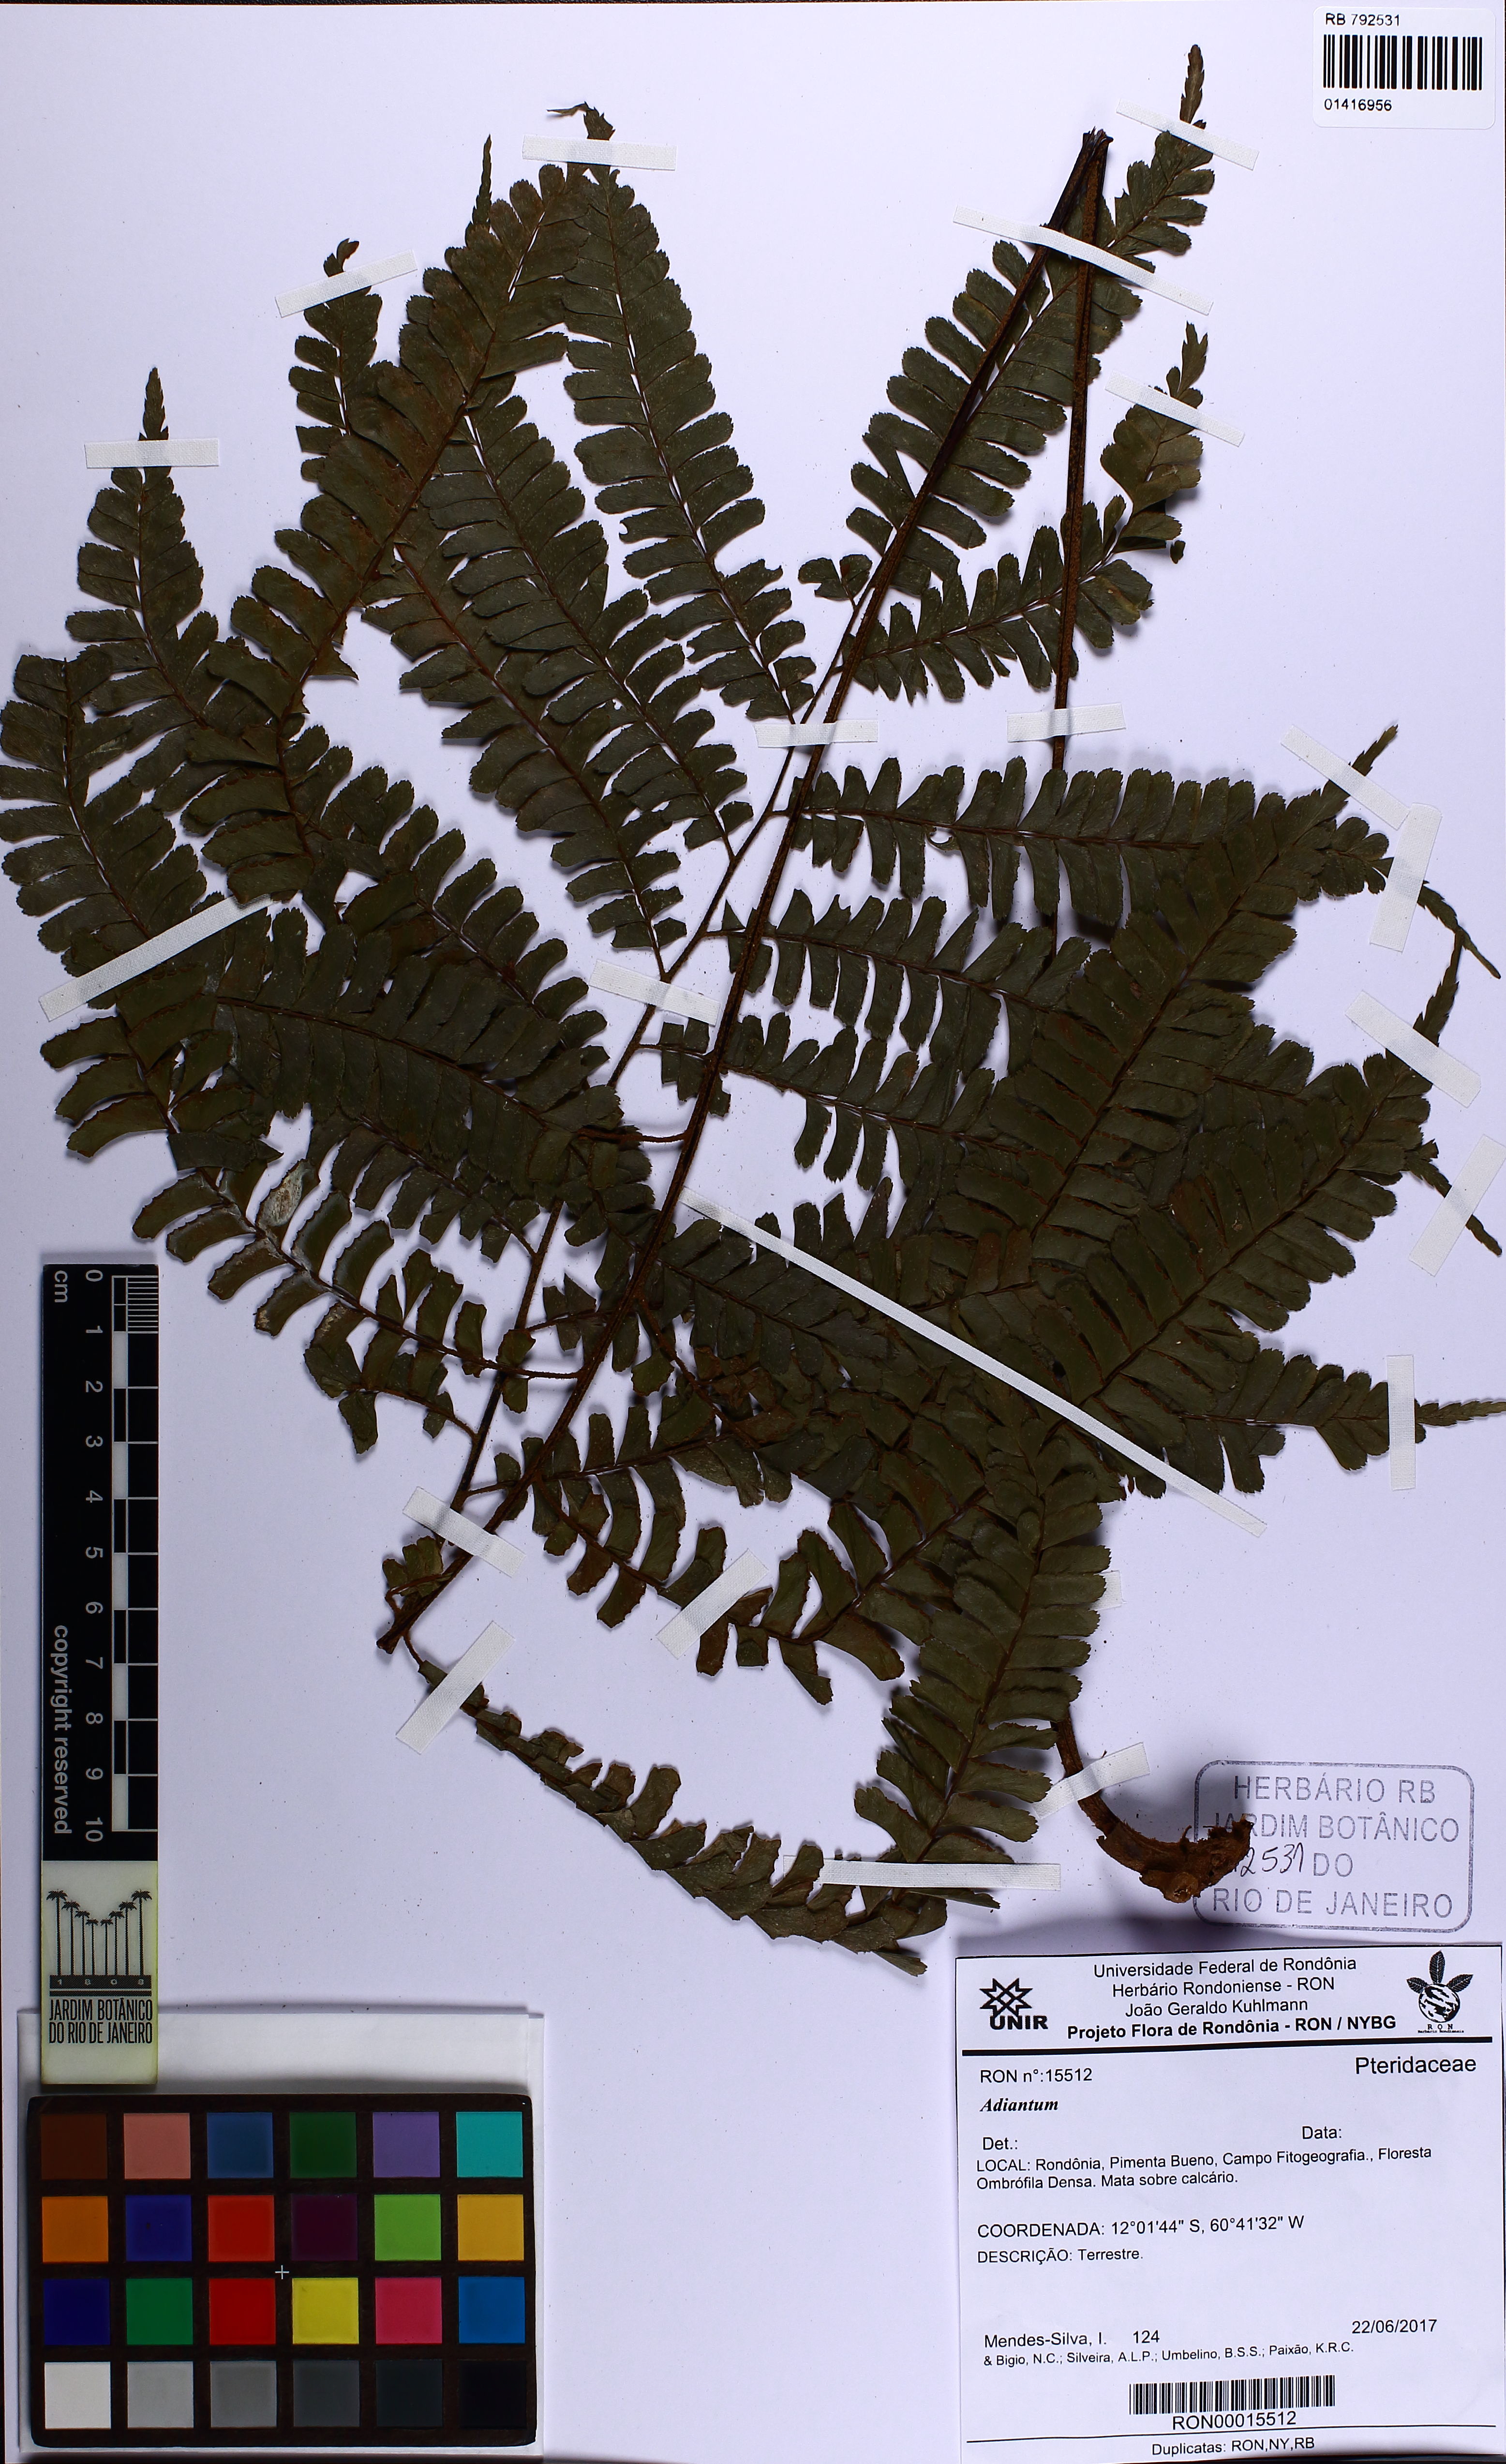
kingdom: Plantae
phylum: Tracheophyta
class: Polypodiopsida
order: Polypodiales
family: Pteridaceae
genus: Adiantum
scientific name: Adiantum
